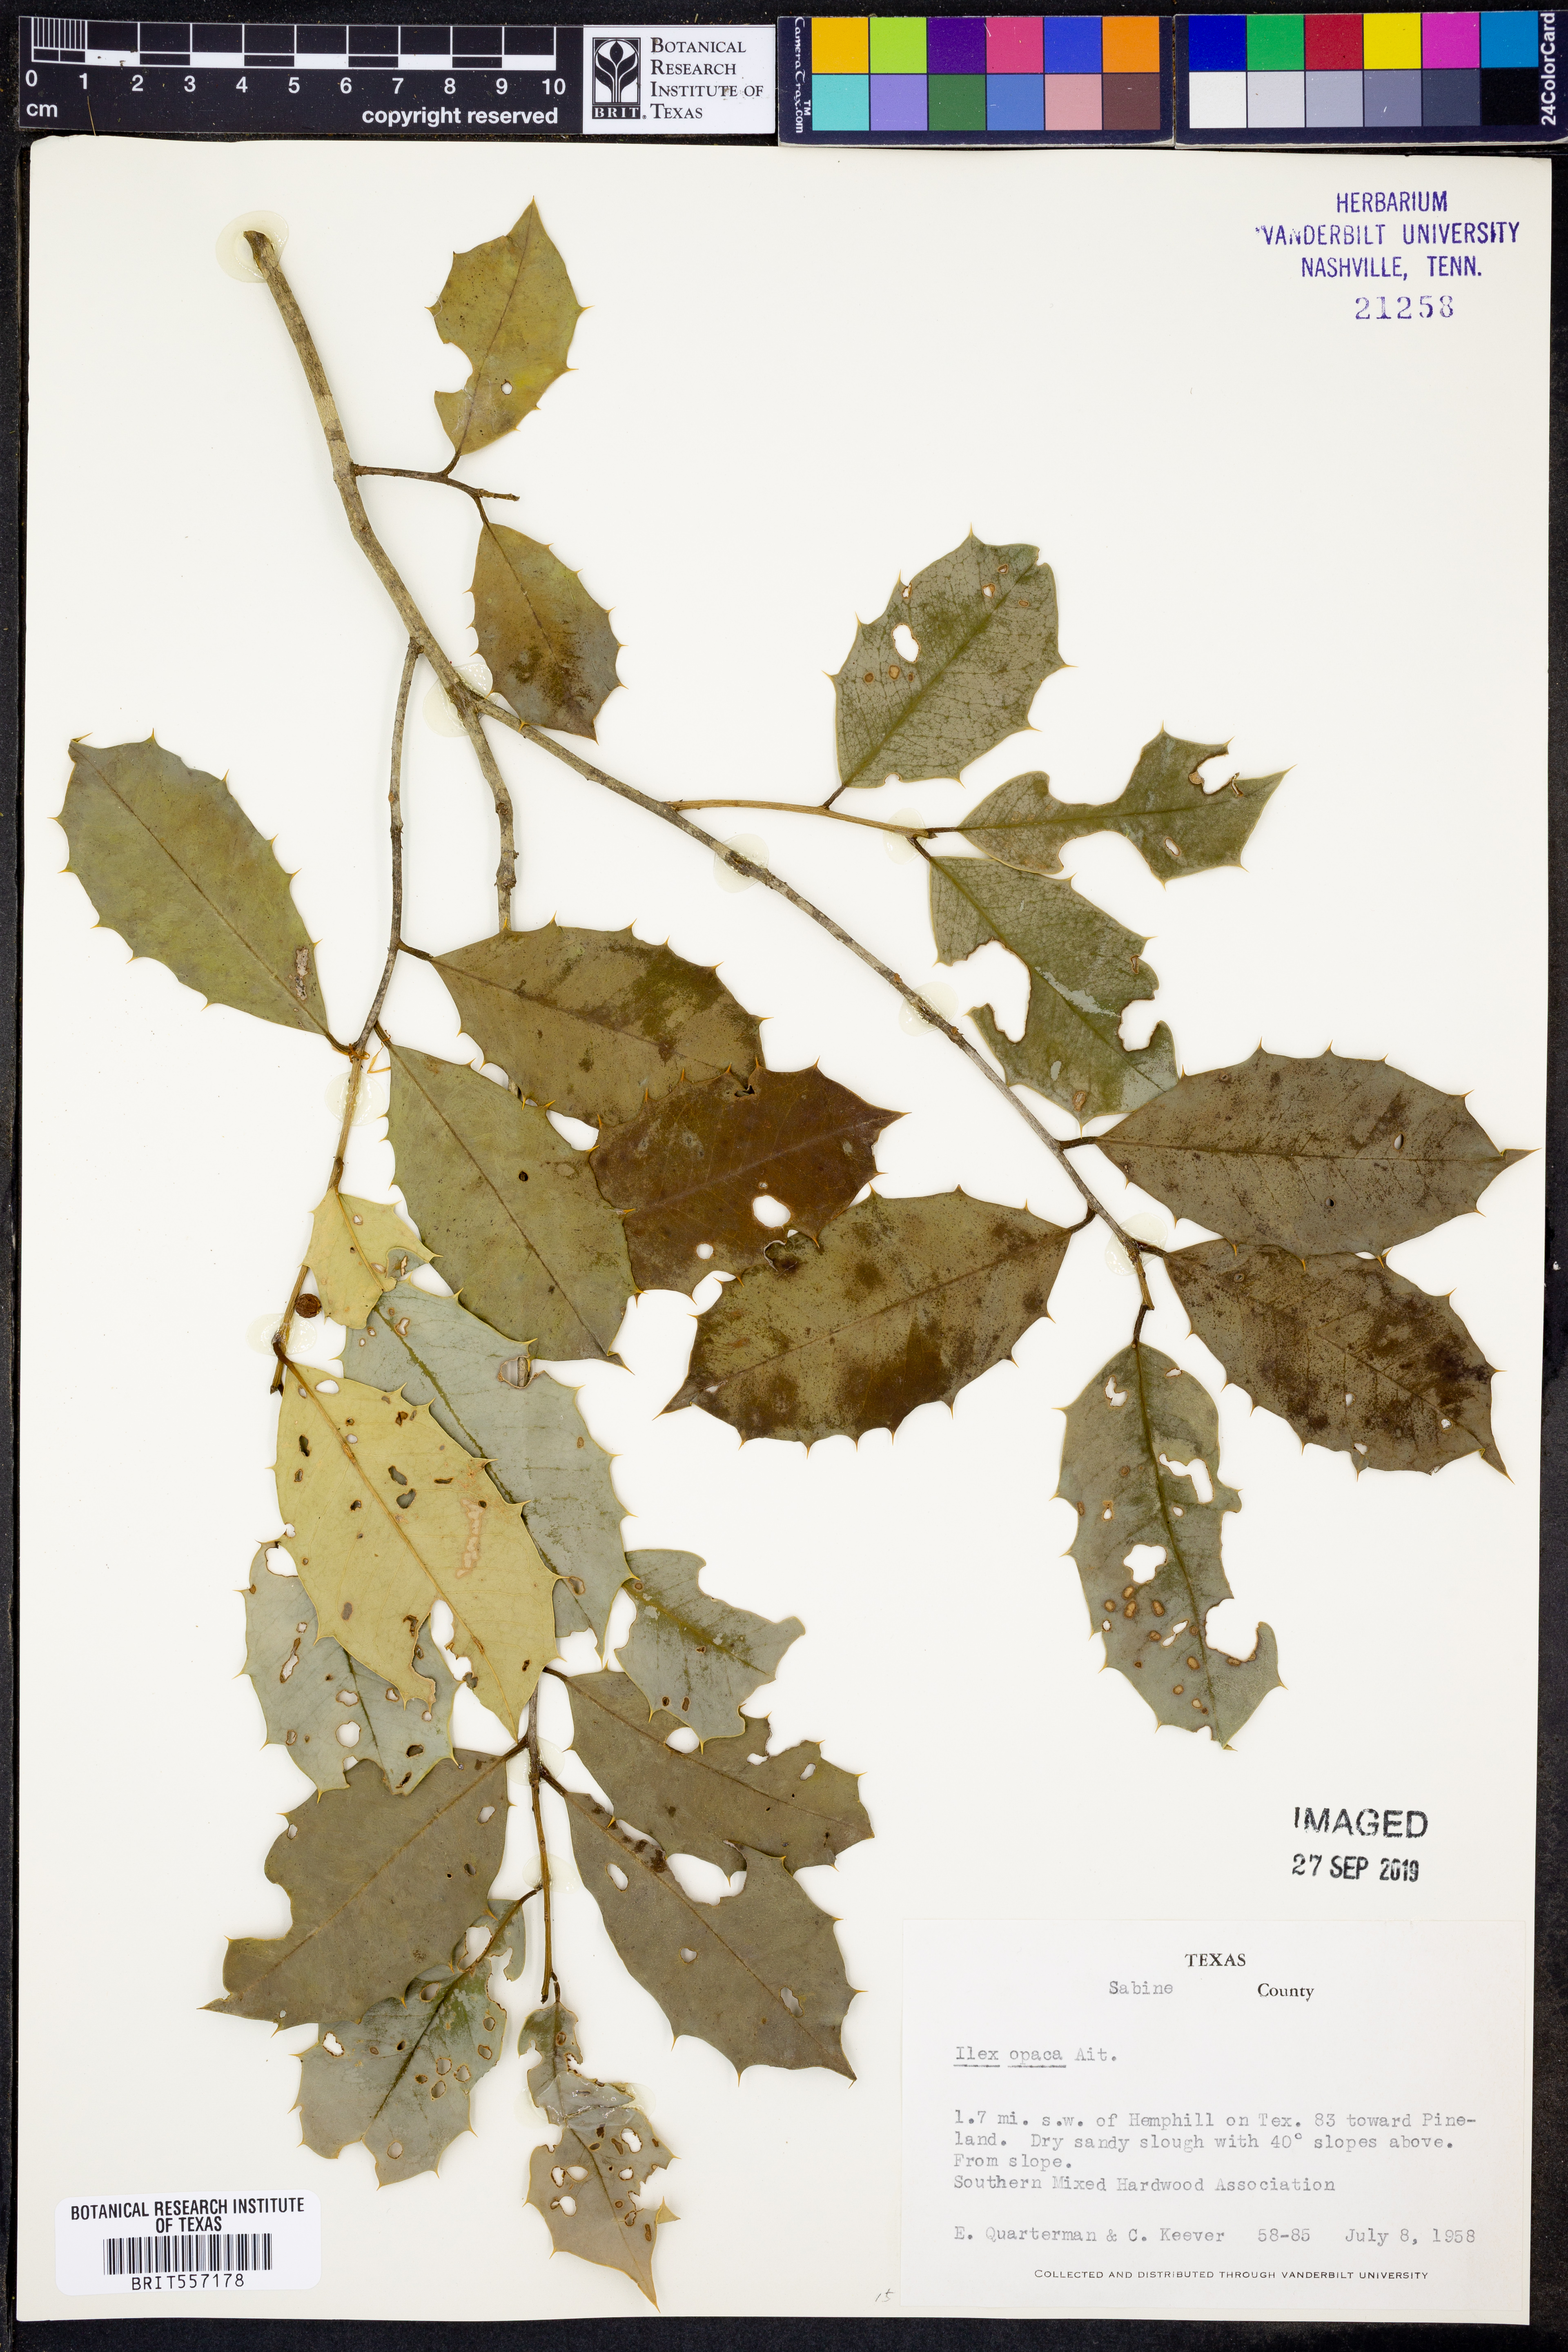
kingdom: Plantae
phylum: Tracheophyta
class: Magnoliopsida
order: Aquifoliales
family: Aquifoliaceae
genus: Ilex
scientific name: Ilex opaca
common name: American holly
